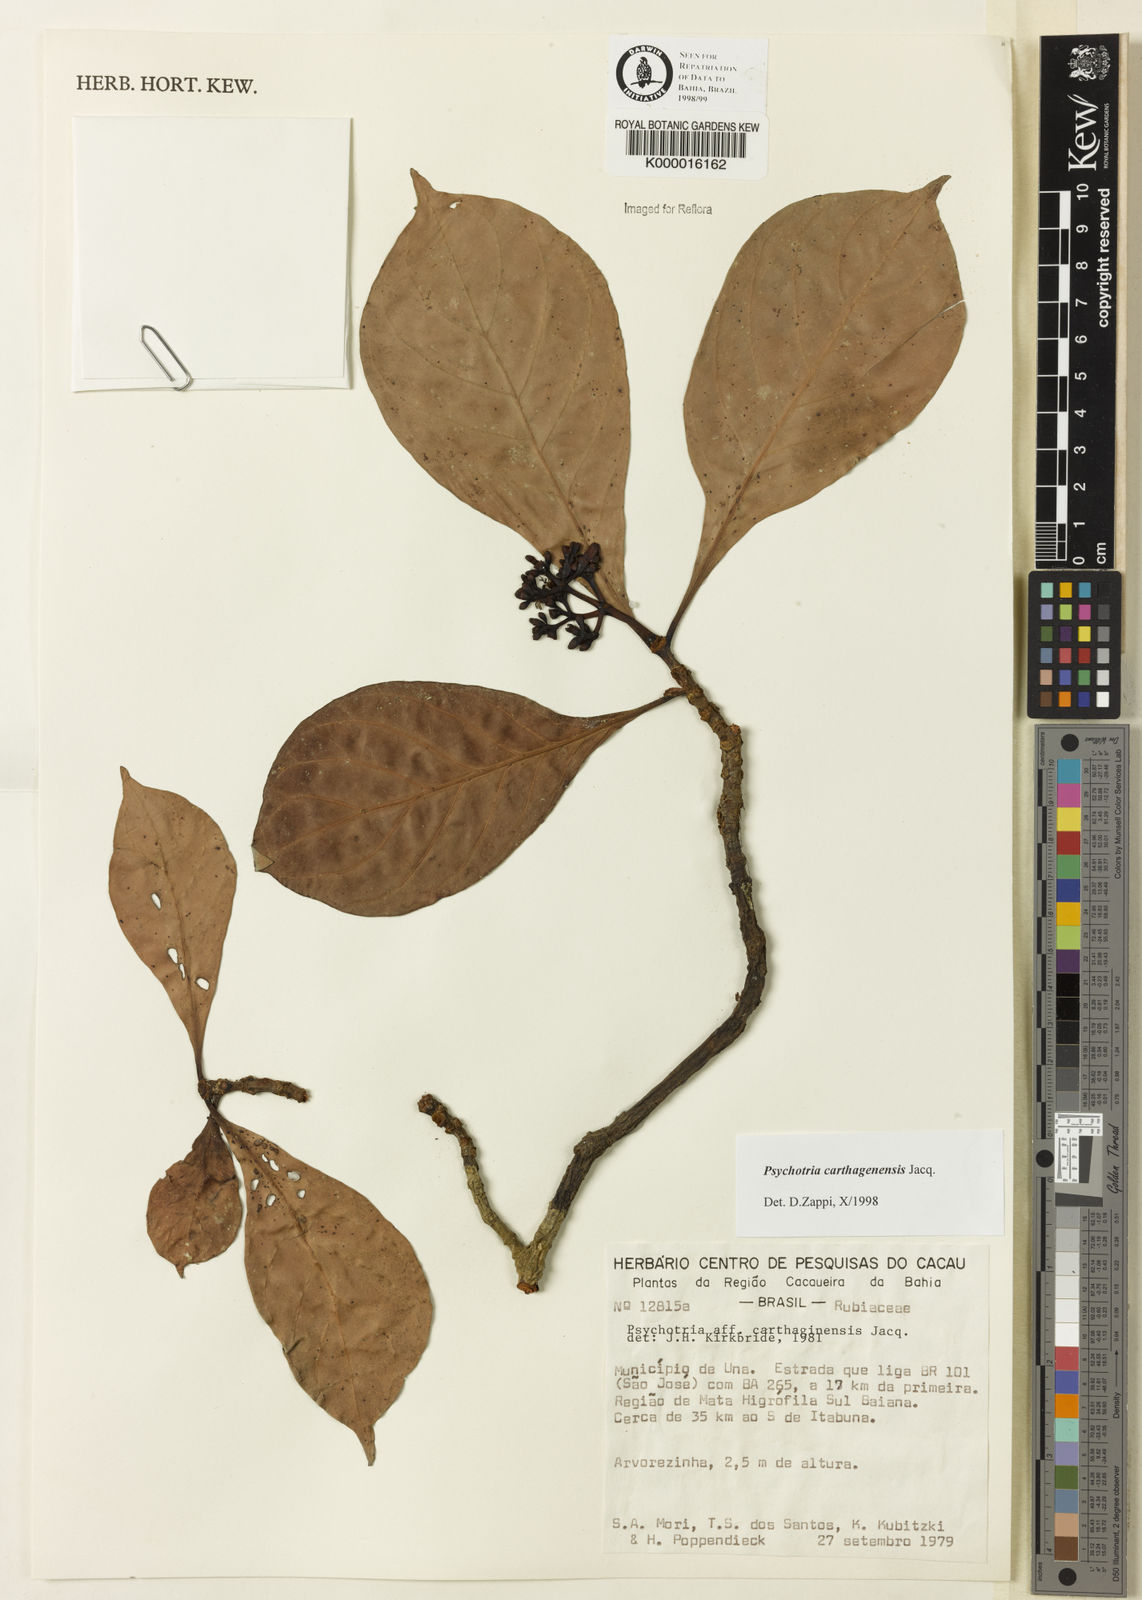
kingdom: Plantae
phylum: Tracheophyta
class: Magnoliopsida
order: Gentianales
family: Rubiaceae
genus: Psychotria
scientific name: Psychotria carthagenensis
